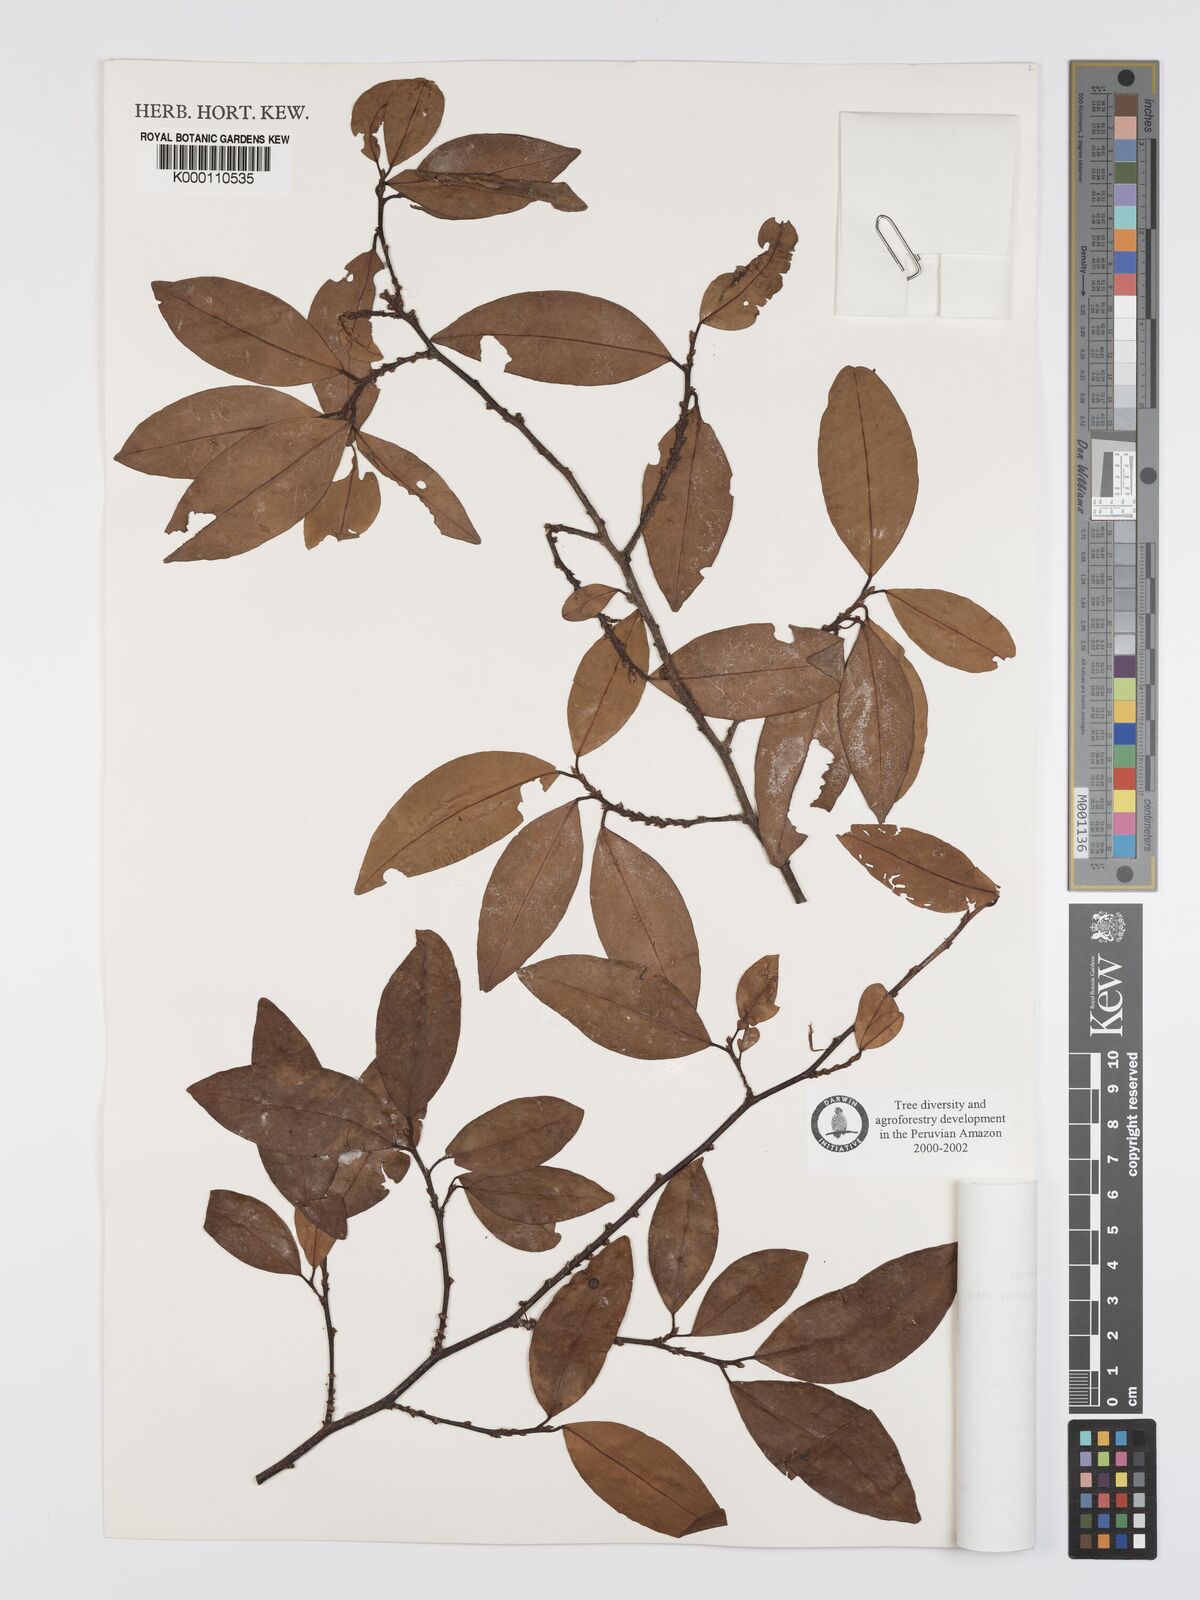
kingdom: Plantae
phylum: Tracheophyta
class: Magnoliopsida
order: Malpighiales
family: Erythroxylaceae
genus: Erythroxylum
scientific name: Erythroxylum ulei
